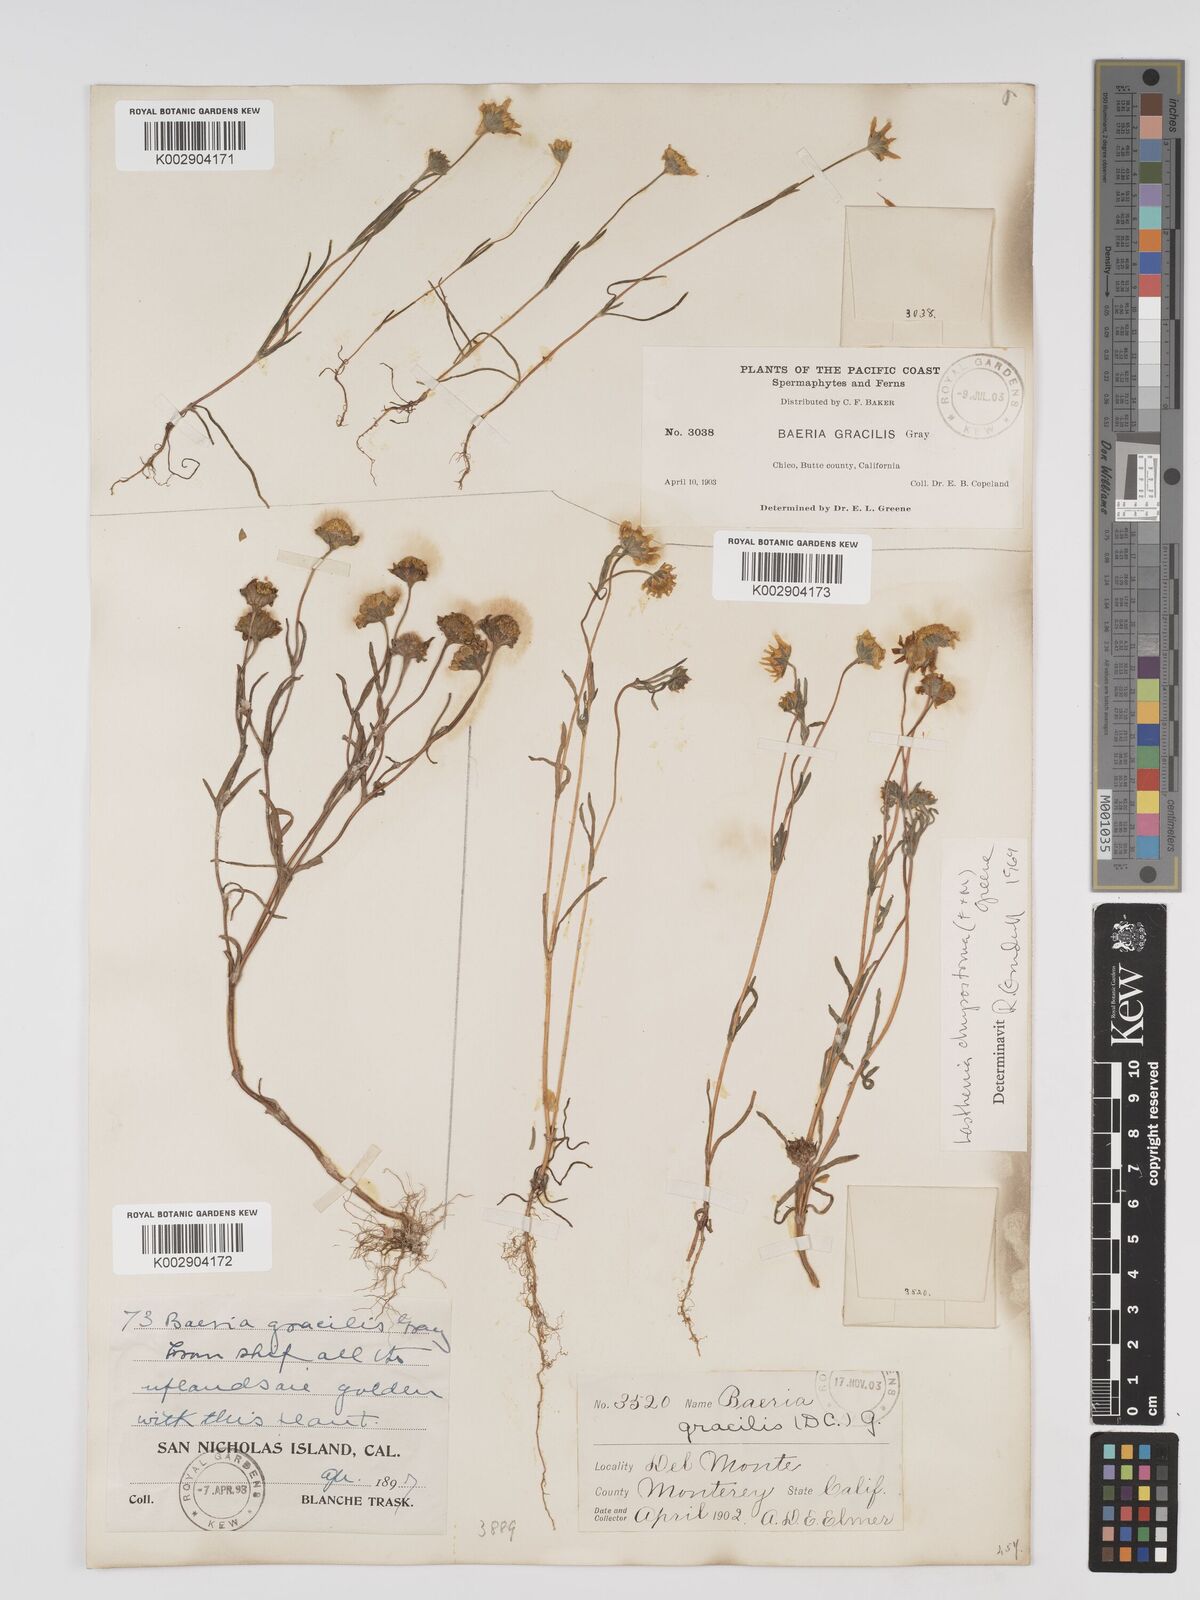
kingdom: Plantae
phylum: Tracheophyta
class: Magnoliopsida
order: Asterales
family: Asteraceae
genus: Lasthenia
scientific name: Lasthenia californica
